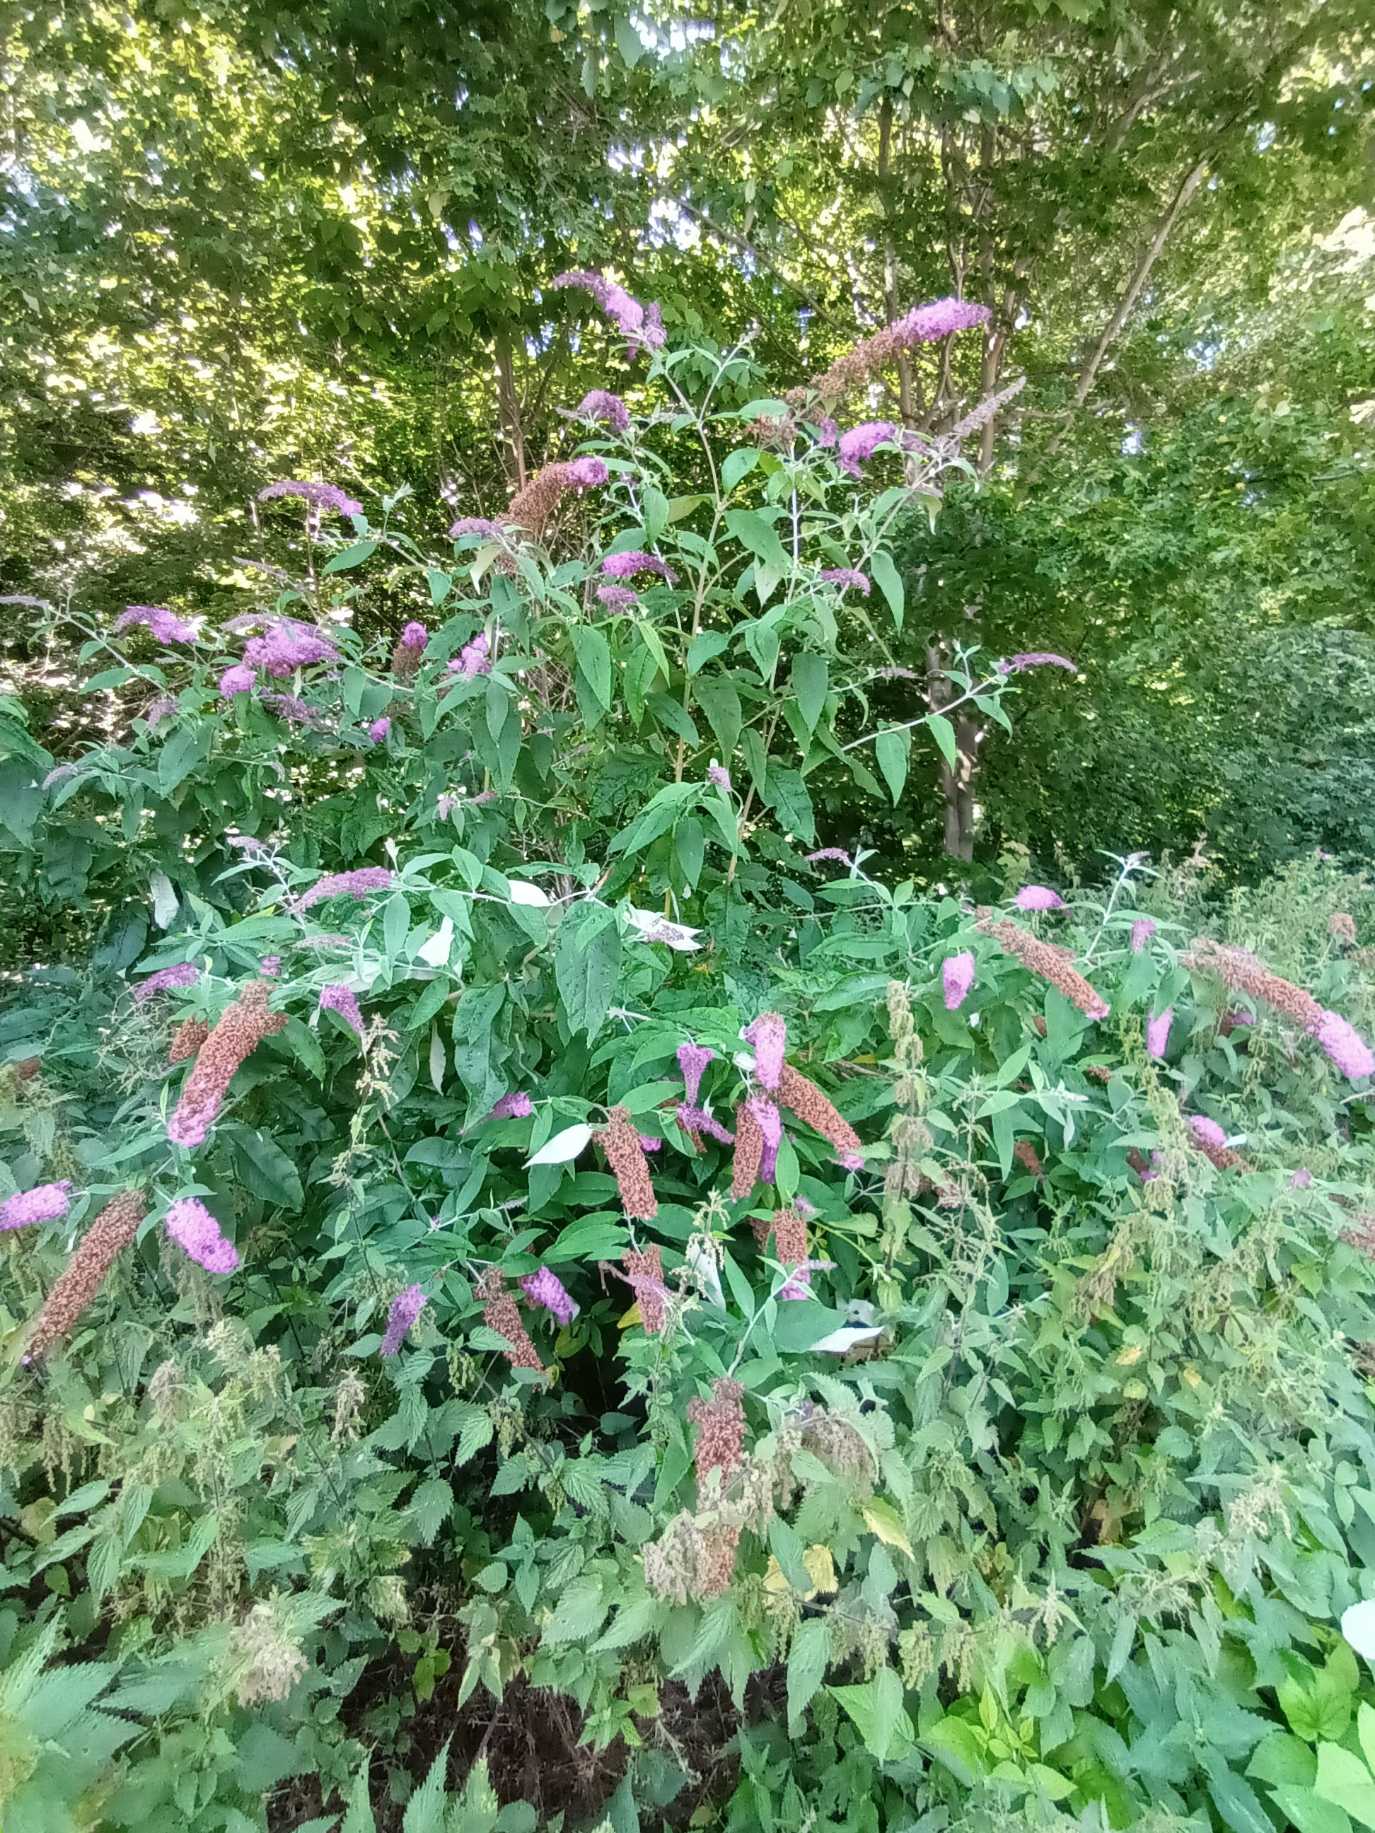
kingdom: Plantae
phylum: Tracheophyta
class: Magnoliopsida
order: Lamiales
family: Scrophulariaceae
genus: Buddleja
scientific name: Buddleja davidii
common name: Sommerfuglebusk
